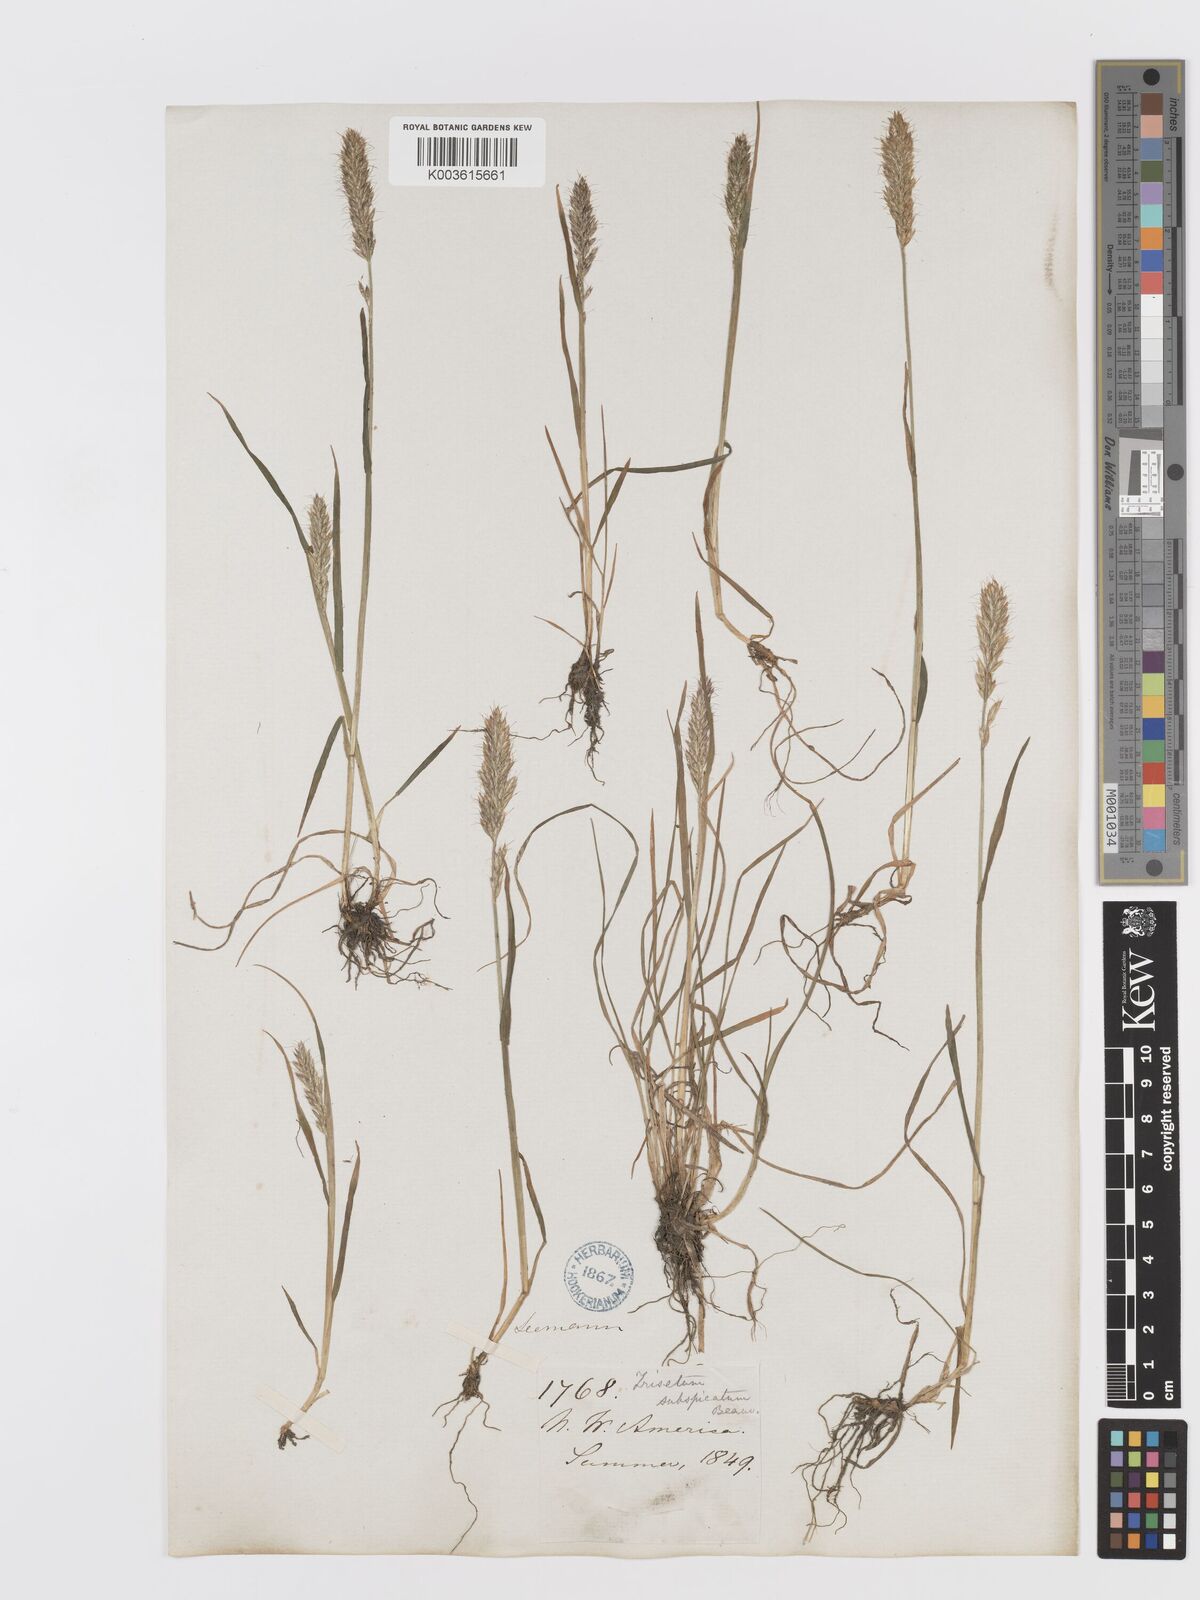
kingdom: Plantae
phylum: Tracheophyta
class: Liliopsida
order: Poales
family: Poaceae
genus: Koeleria
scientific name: Koeleria spicata
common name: Mountain trisetum
